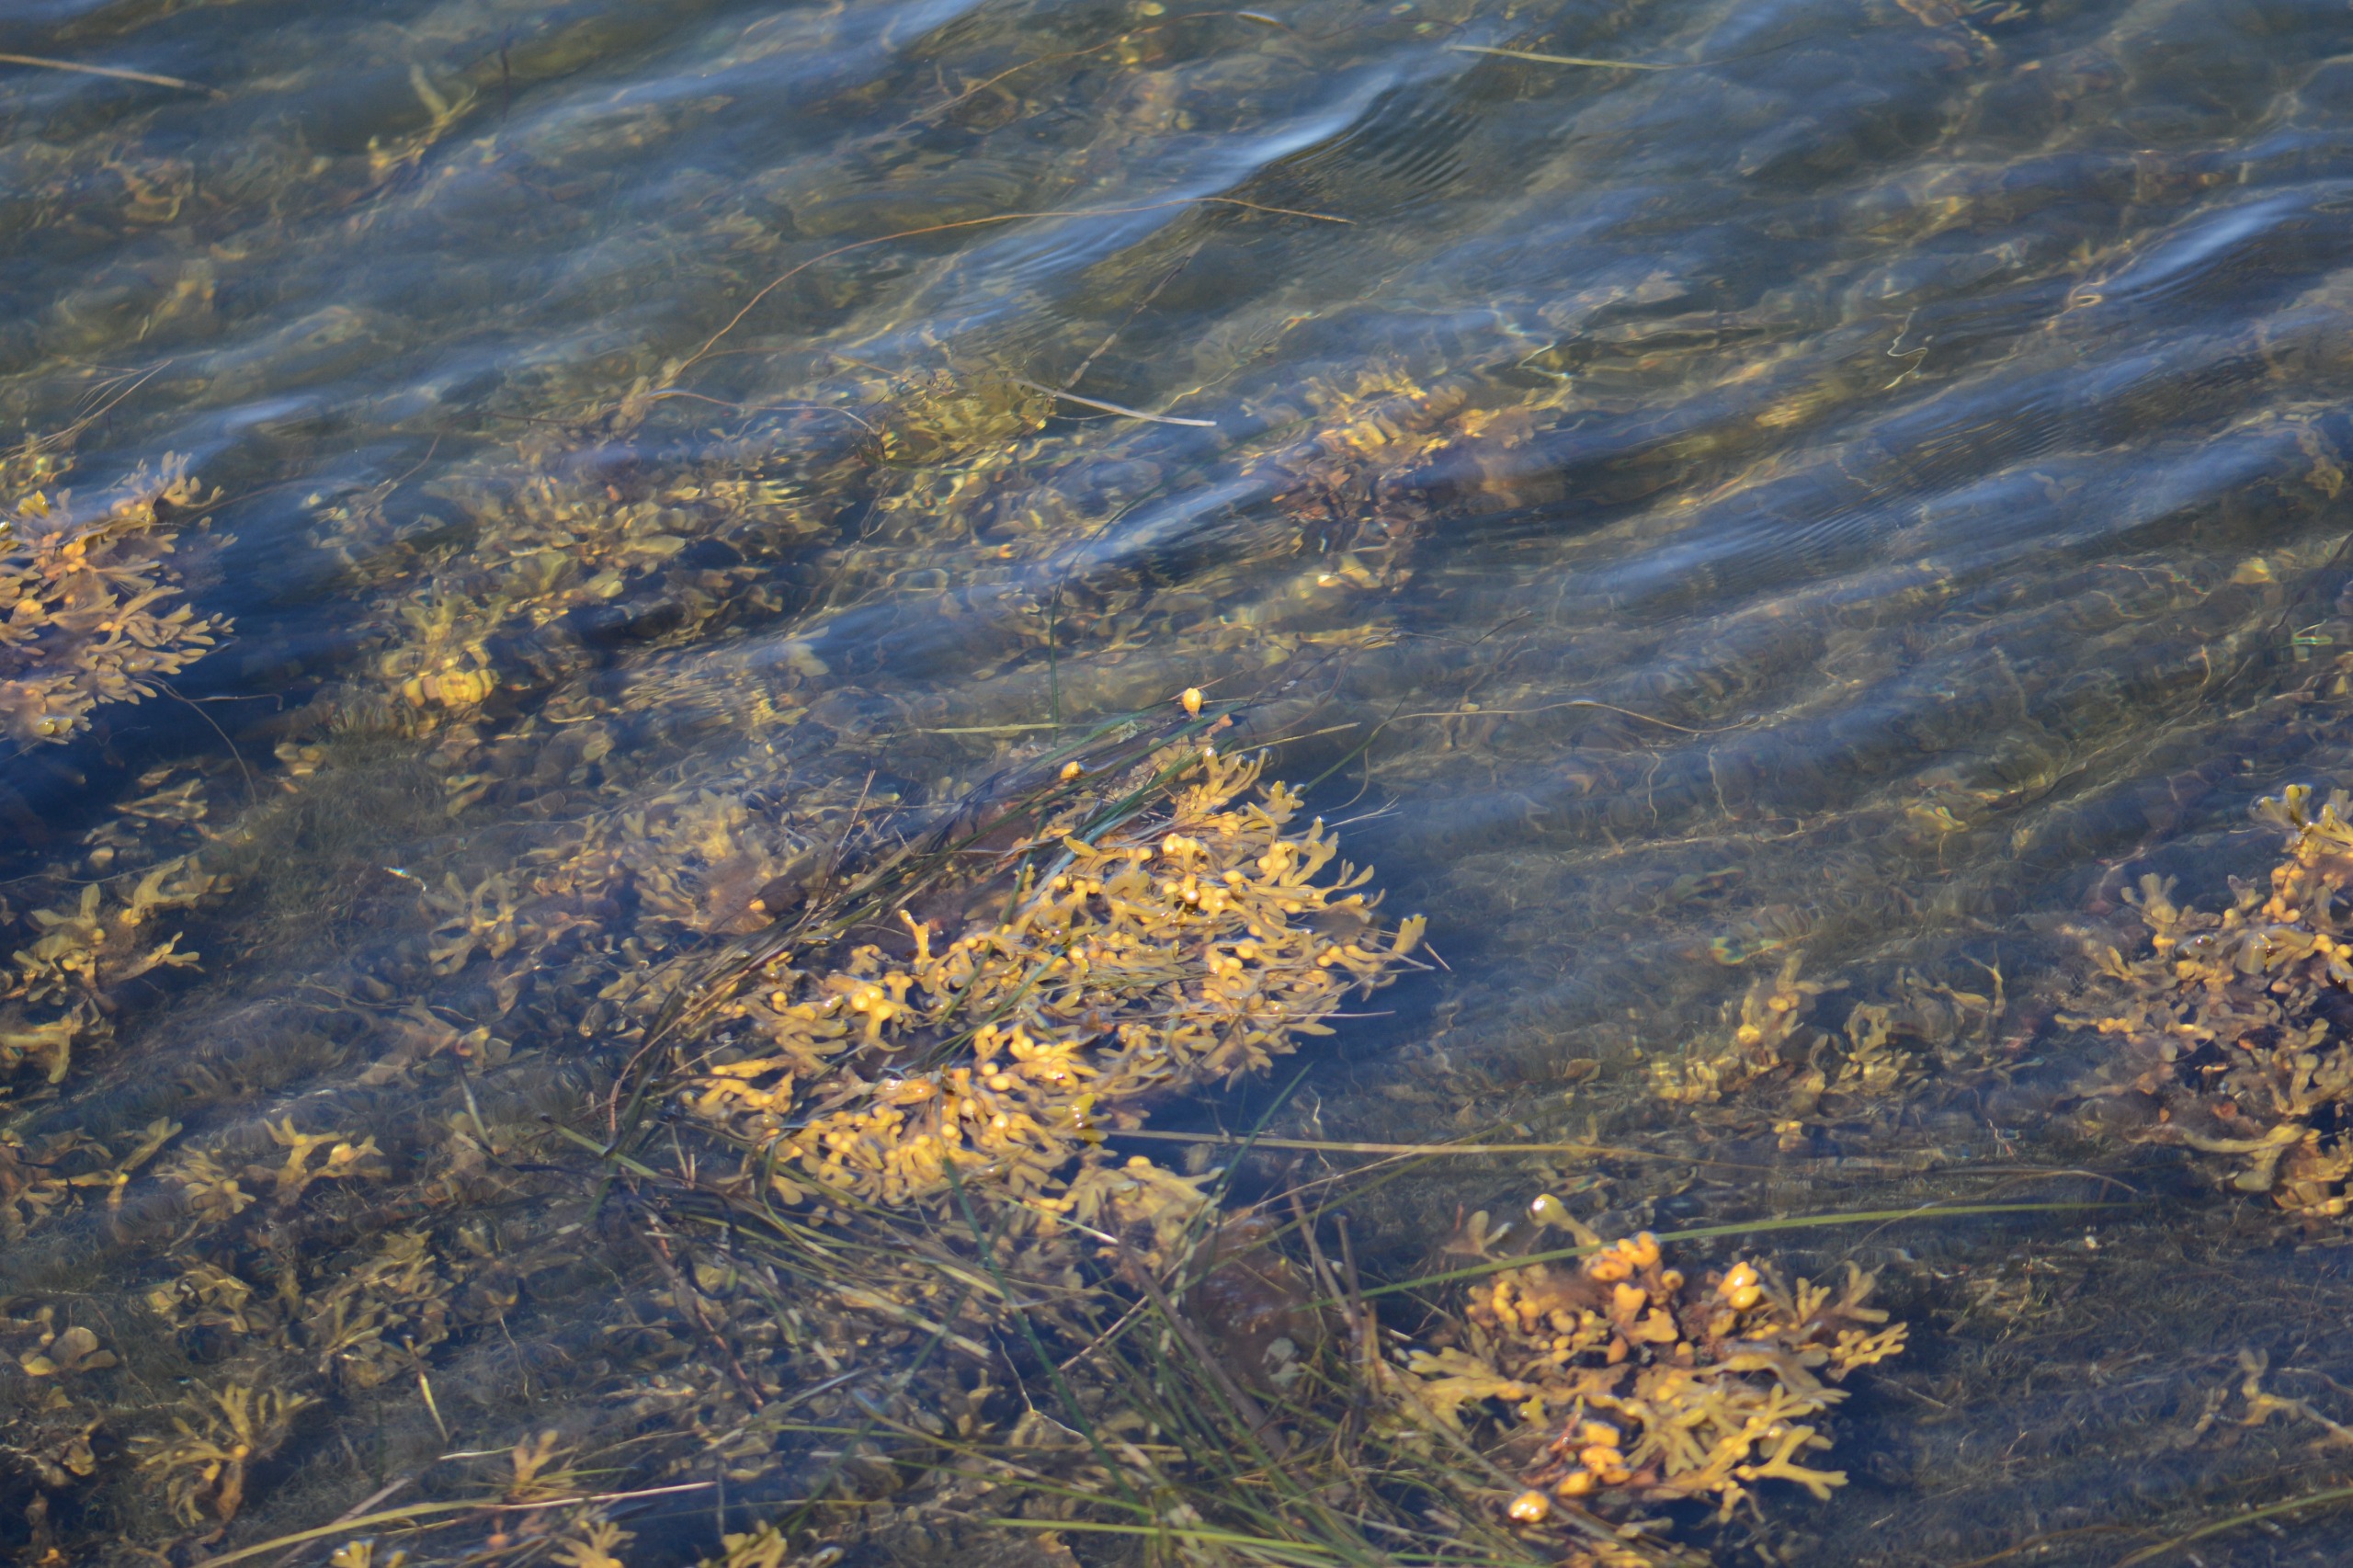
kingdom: Chromista
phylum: Ochrophyta
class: Phaeophyceae
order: Fucales
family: Fucaceae
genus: Fucus
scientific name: Fucus vesiculosus
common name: Blæretang
